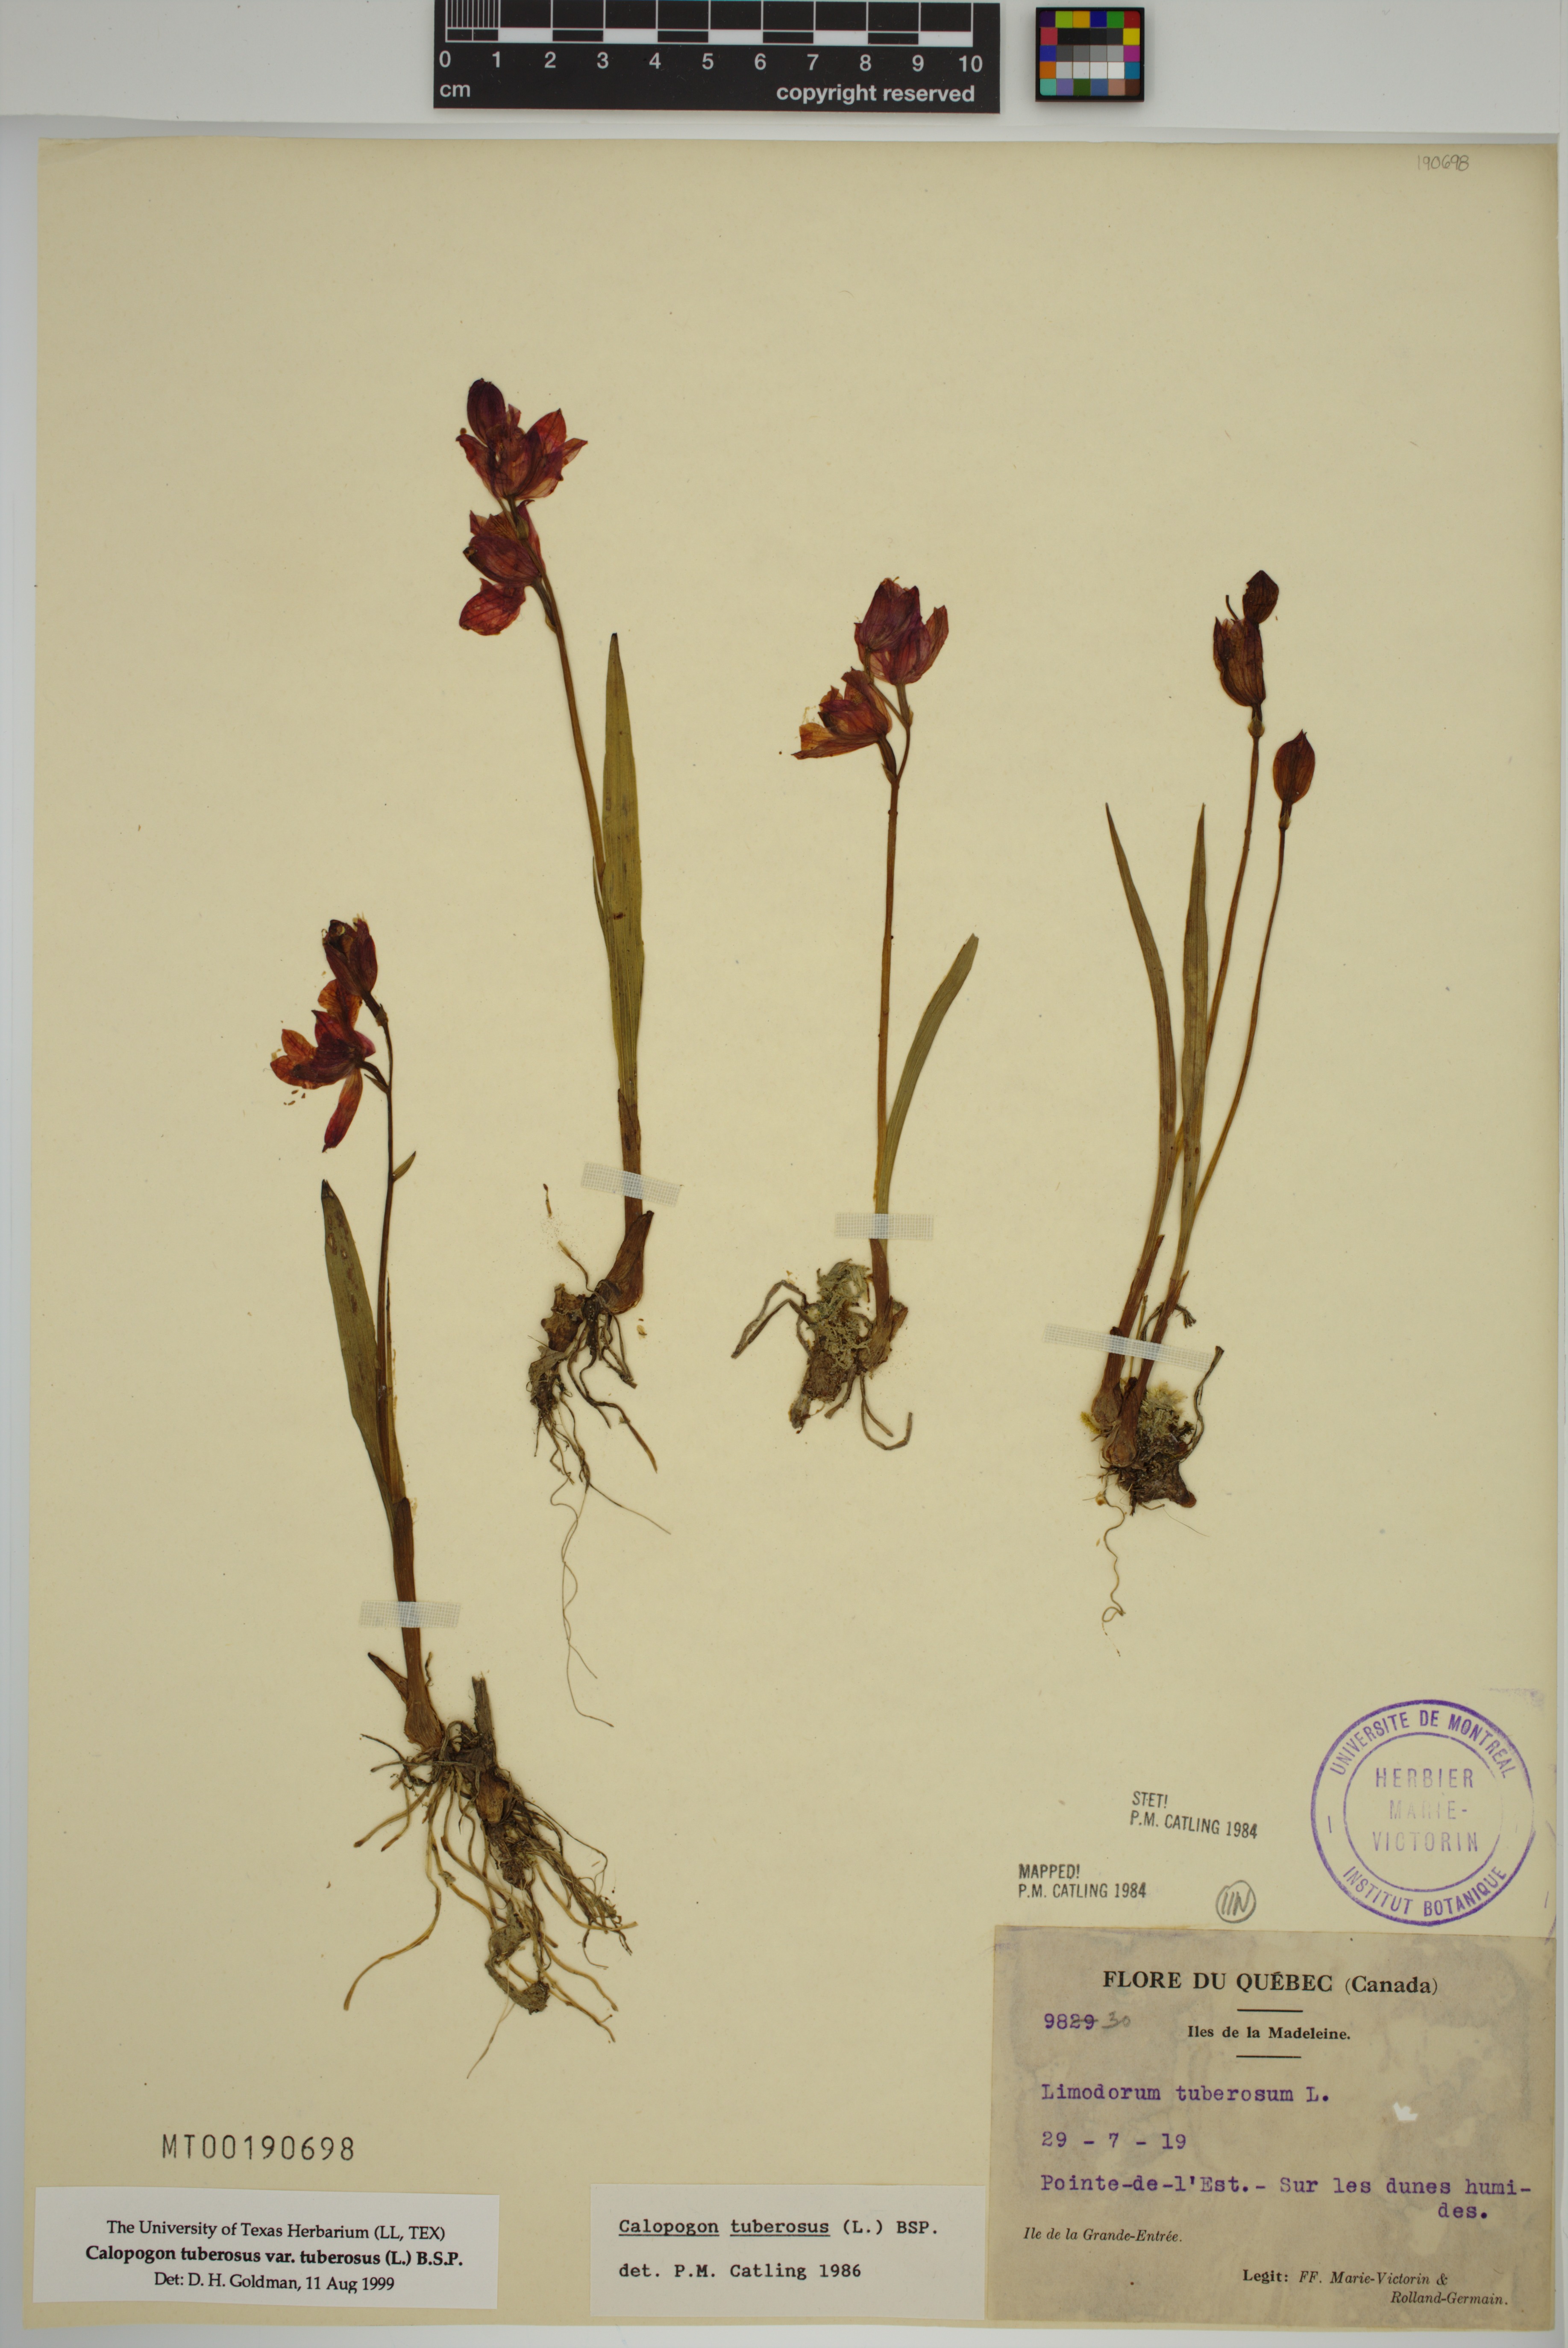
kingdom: Plantae
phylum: Tracheophyta
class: Liliopsida
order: Asparagales
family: Orchidaceae
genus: Calopogon
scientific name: Calopogon tuberosus
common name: Grass-pink
